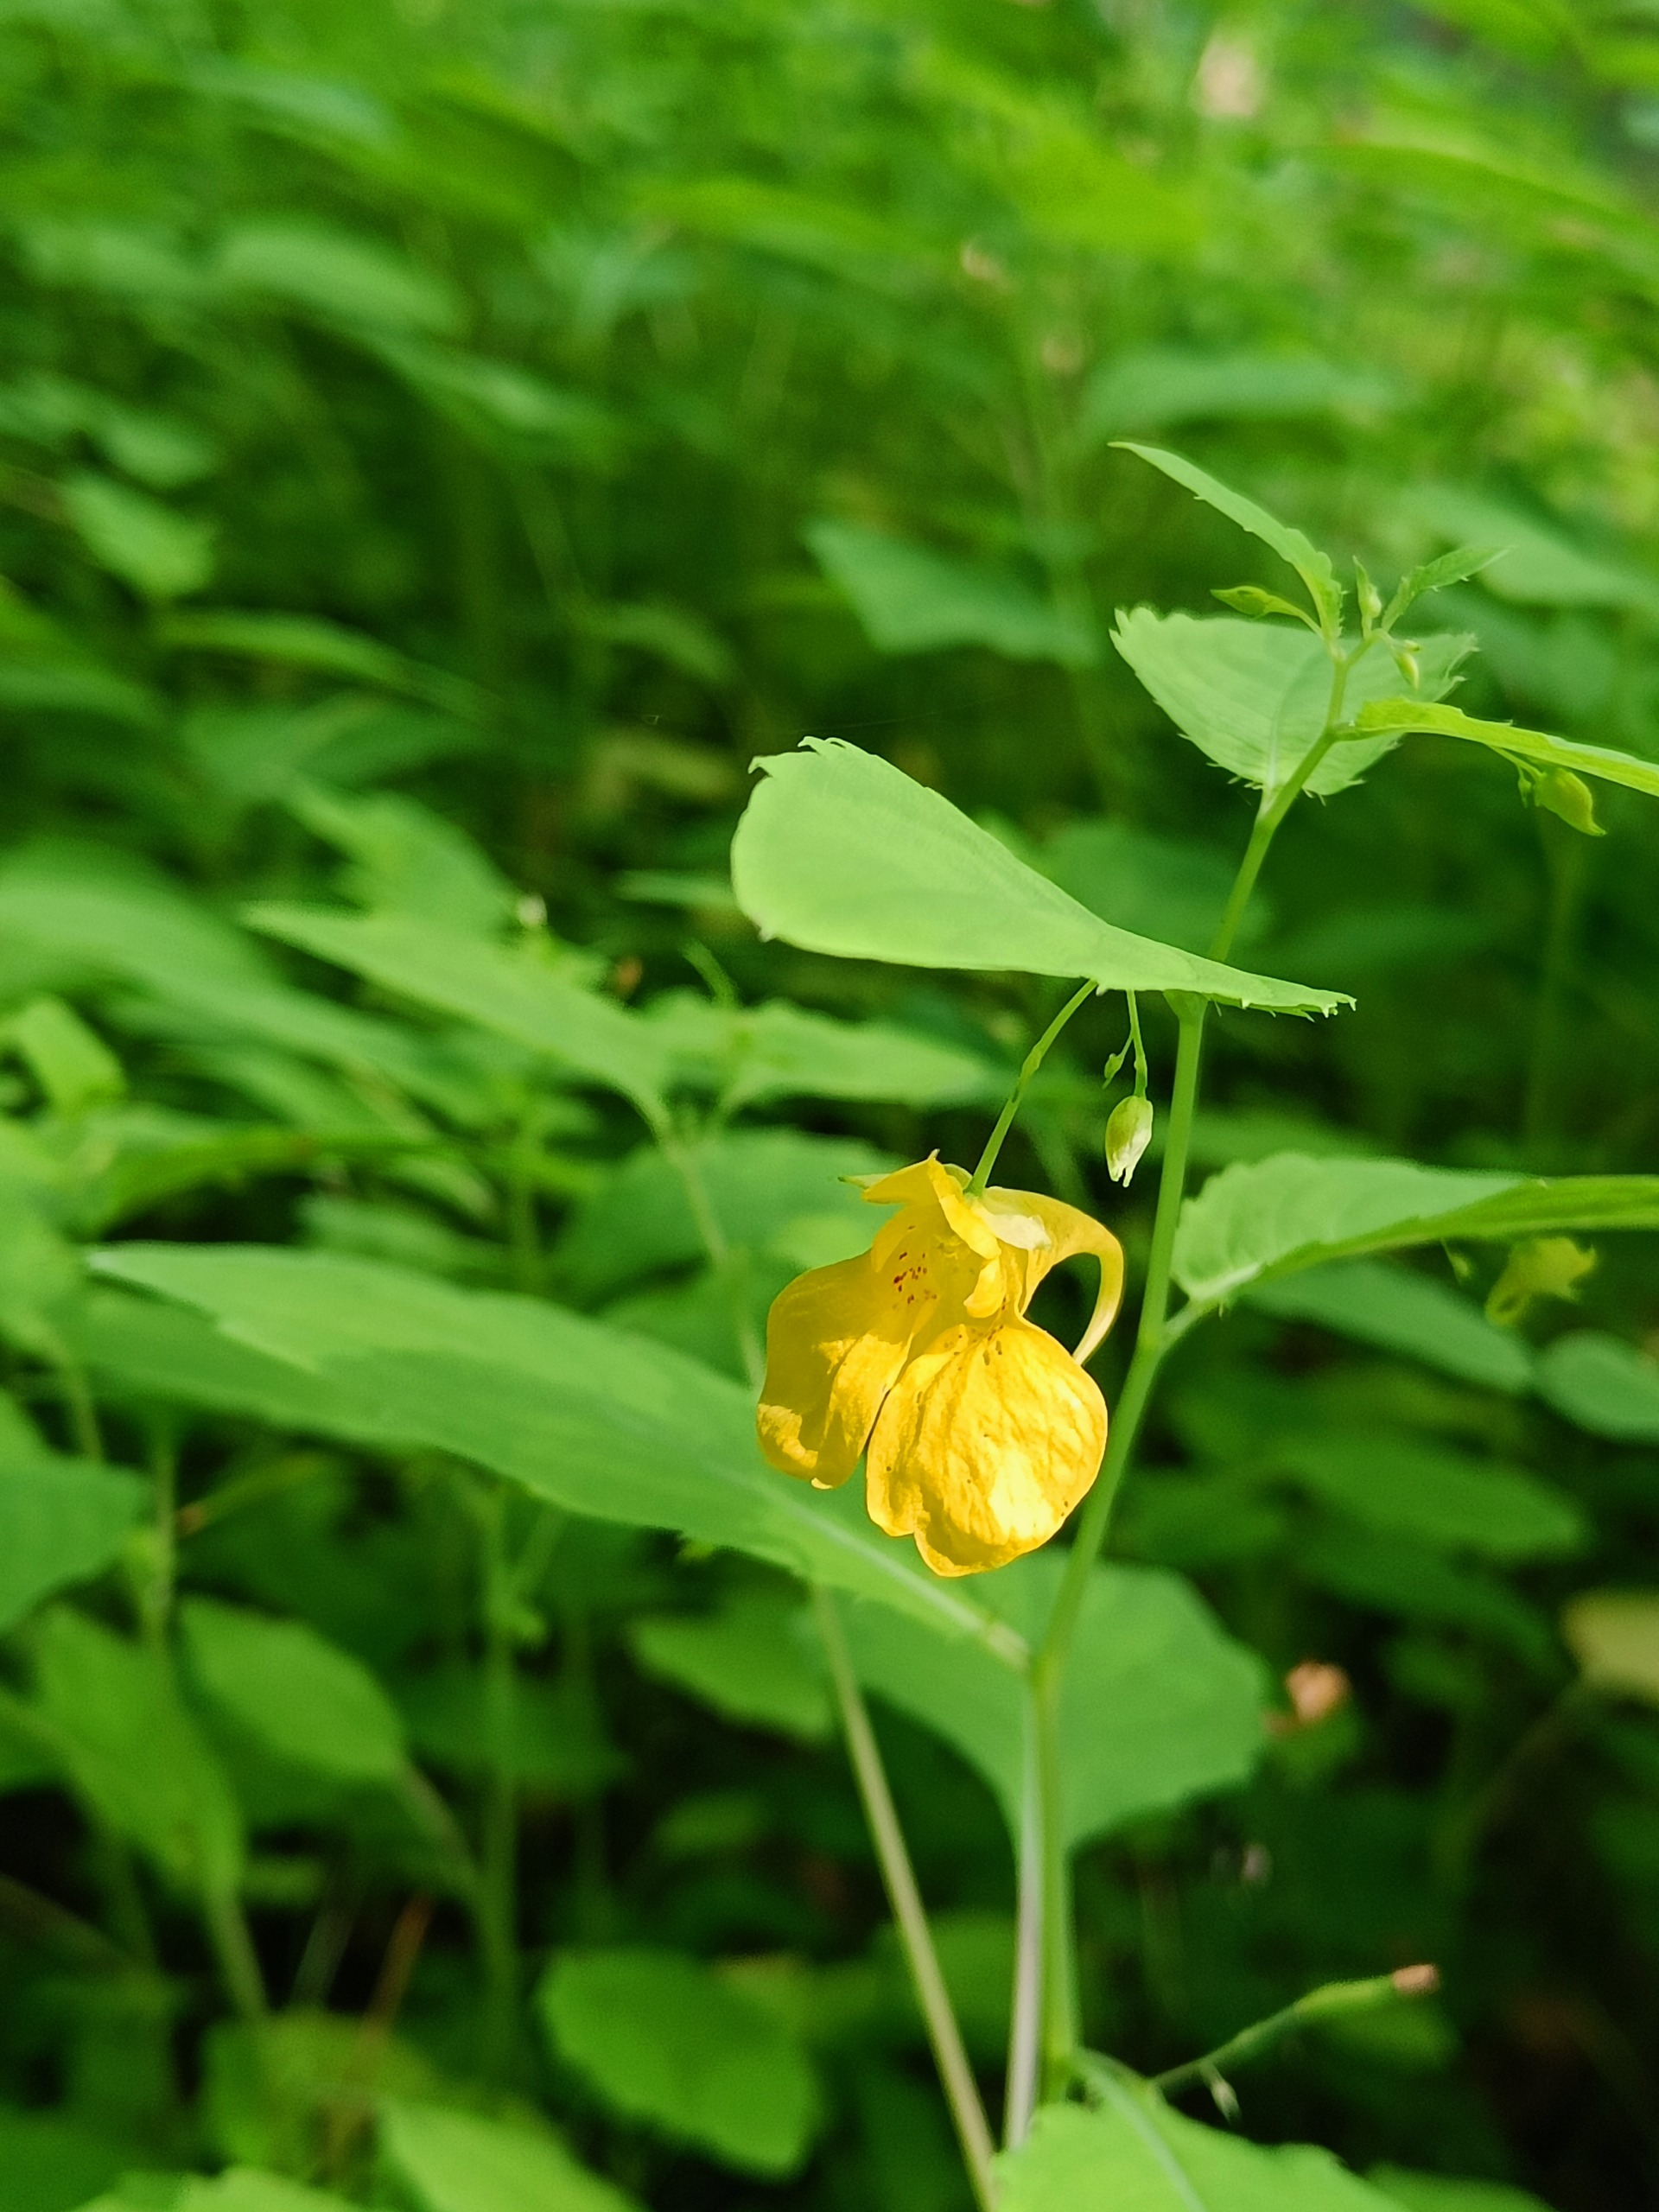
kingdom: Plantae
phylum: Tracheophyta
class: Magnoliopsida
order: Ericales
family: Balsaminaceae
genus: Impatiens
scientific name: Impatiens noli-tangere
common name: Spring-balsamin
